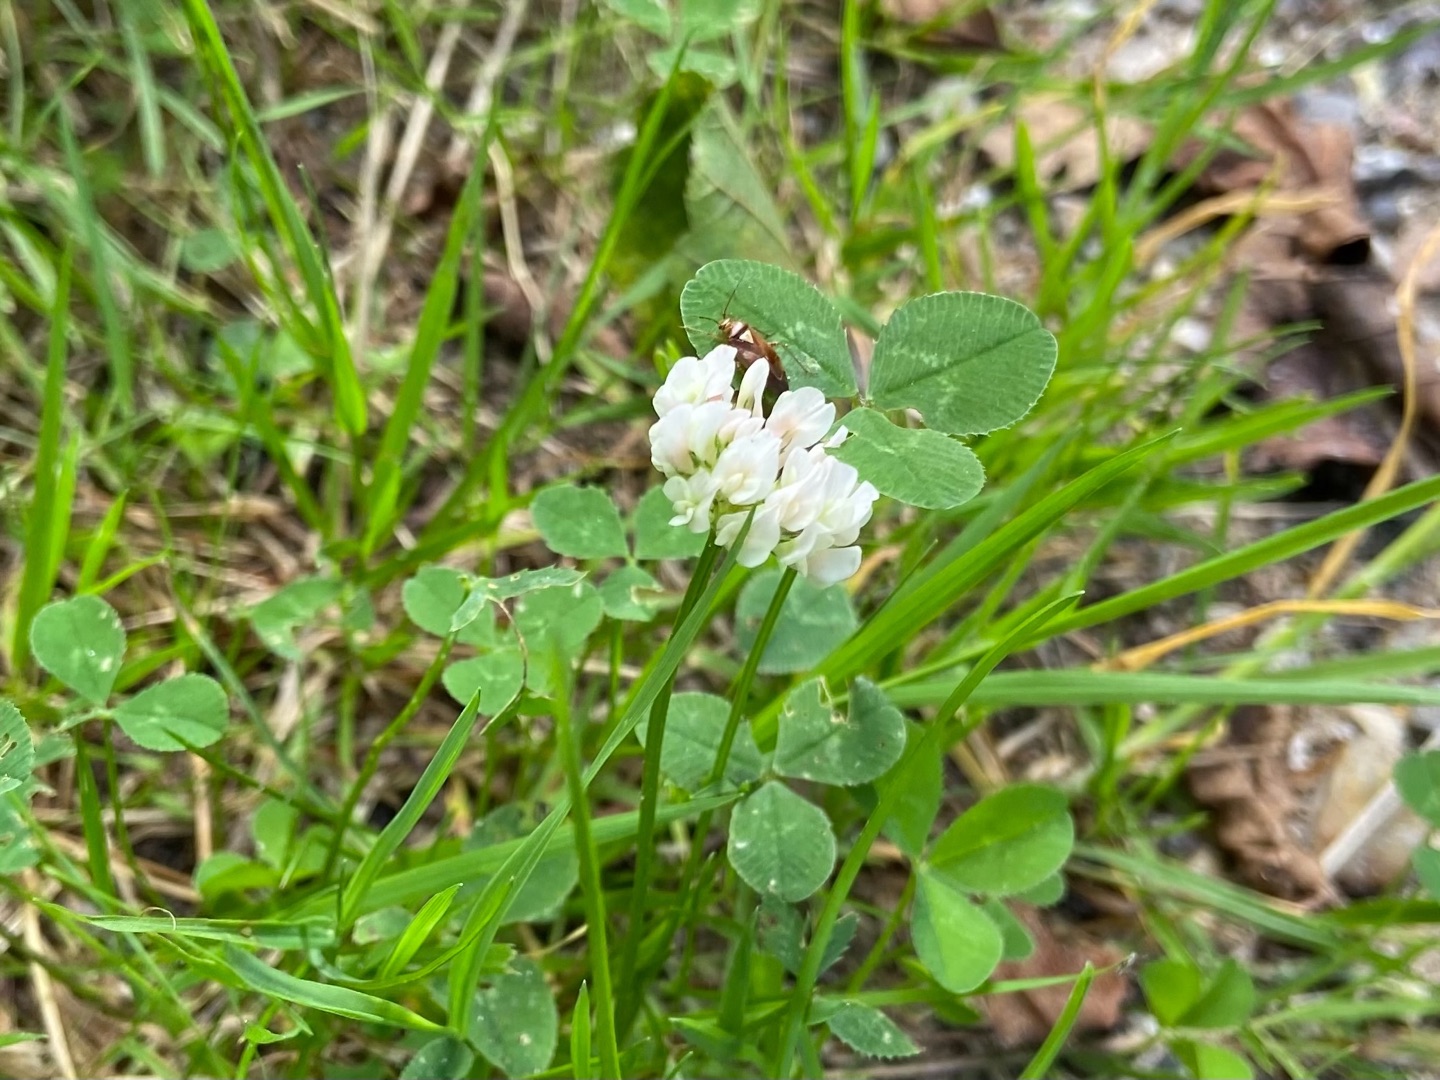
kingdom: Plantae
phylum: Tracheophyta
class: Magnoliopsida
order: Fabales
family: Fabaceae
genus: Trifolium
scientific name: Trifolium repens
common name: Hvid-kløver
